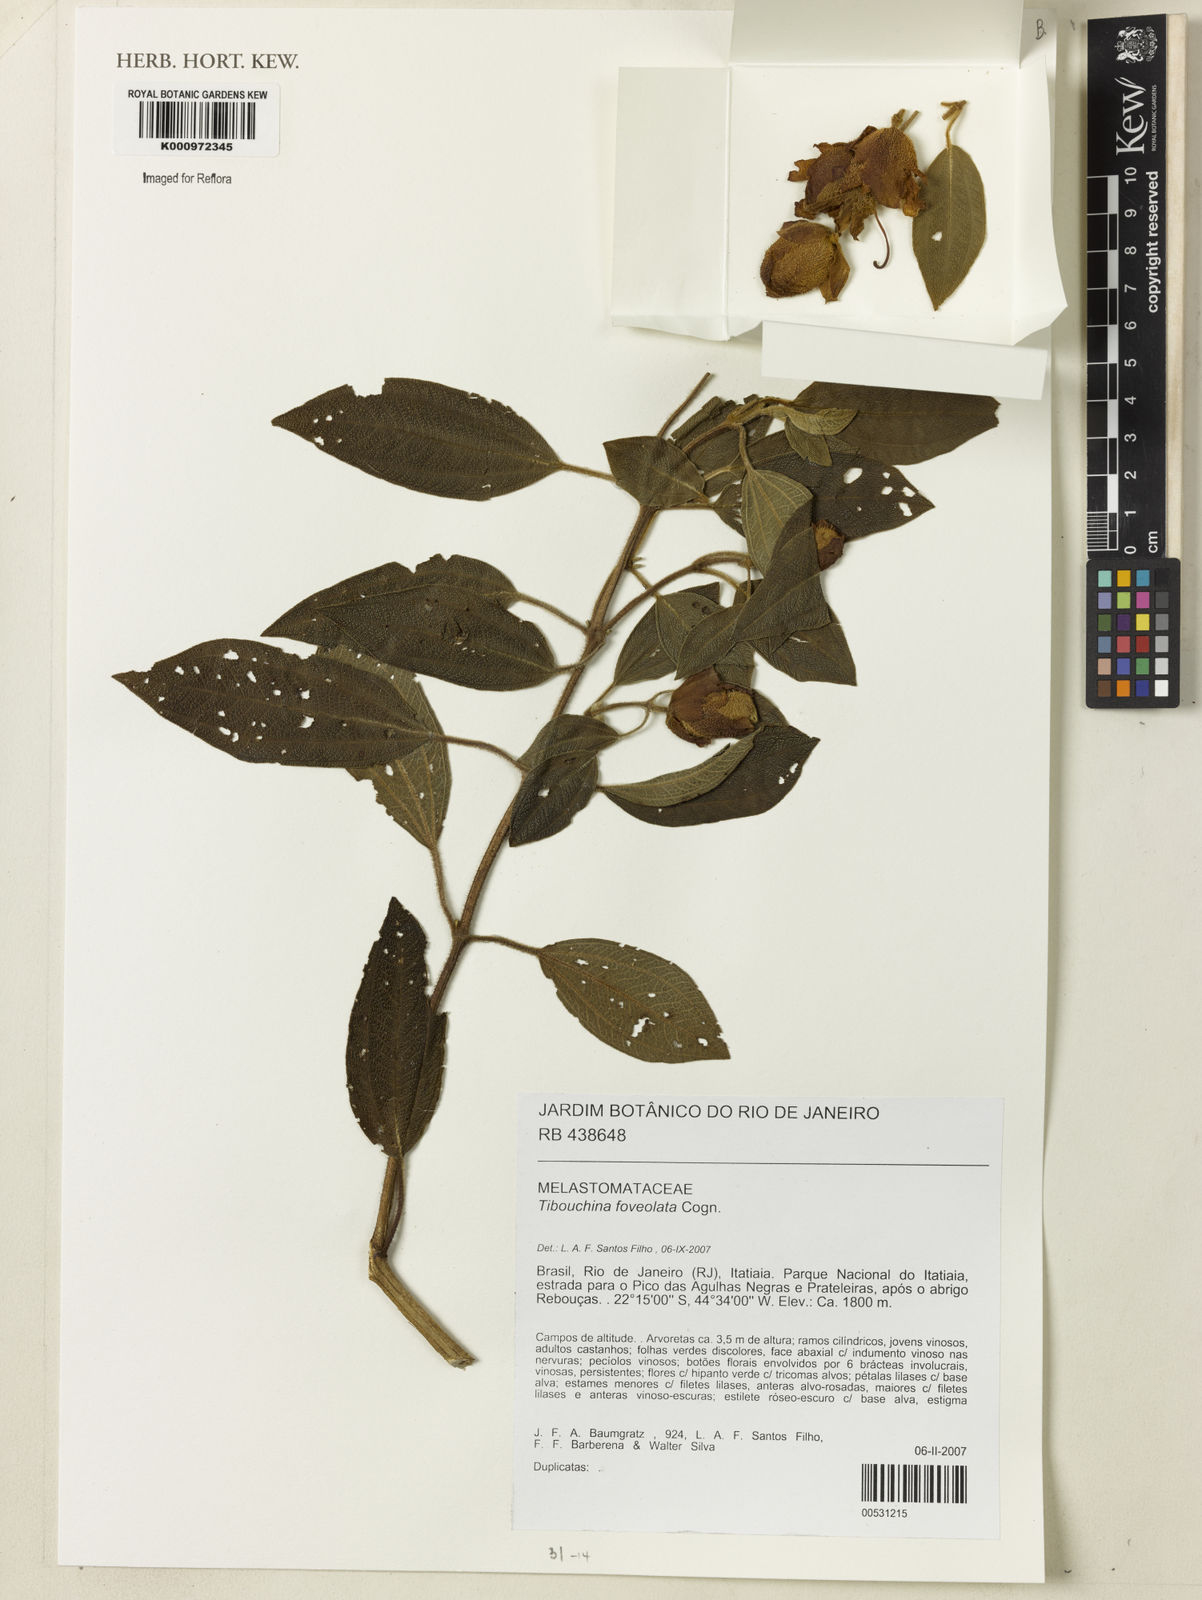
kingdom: Plantae
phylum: Tracheophyta
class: Magnoliopsida
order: Myrtales
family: Melastomataceae
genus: Pleroma
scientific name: Pleroma foveolatum
